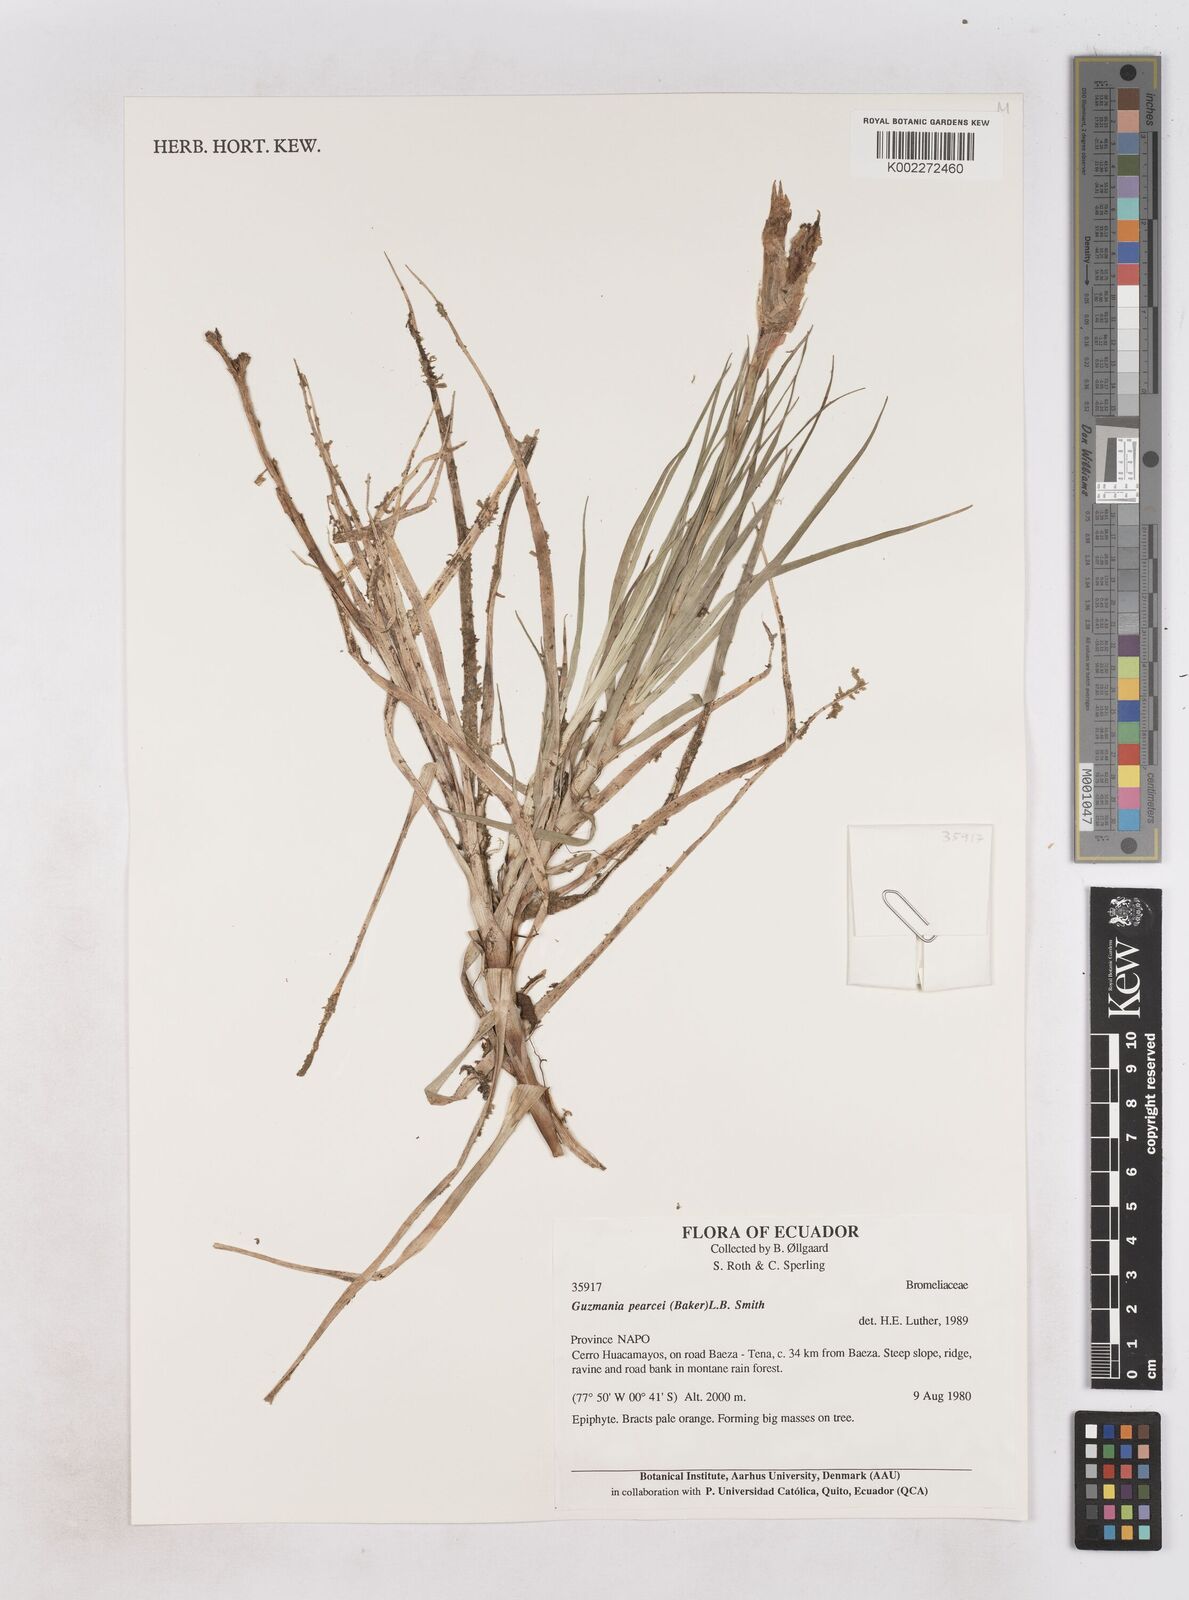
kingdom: Plantae
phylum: Tracheophyta
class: Liliopsida
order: Poales
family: Bromeliaceae
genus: Guzmania
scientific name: Guzmania pearcei
